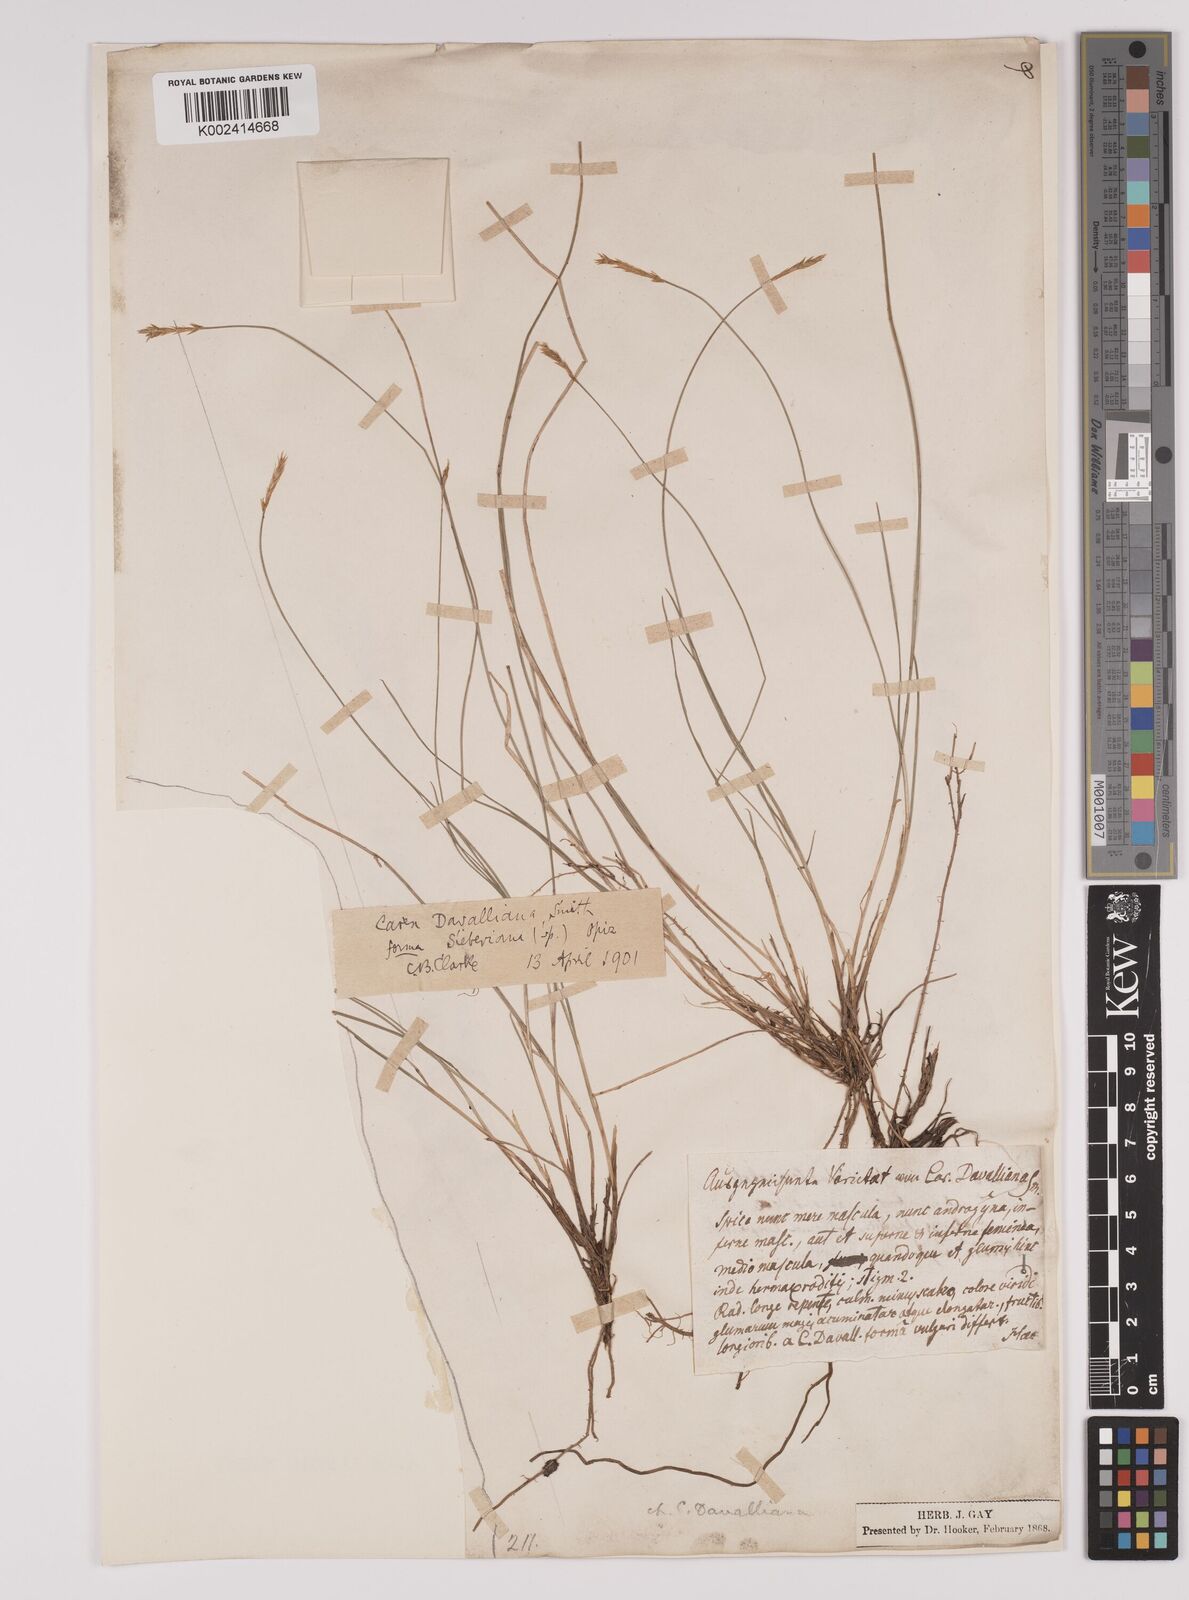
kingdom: Plantae
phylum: Tracheophyta
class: Liliopsida
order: Poales
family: Cyperaceae
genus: Carex
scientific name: Carex davalliana
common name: Davall's sedge
